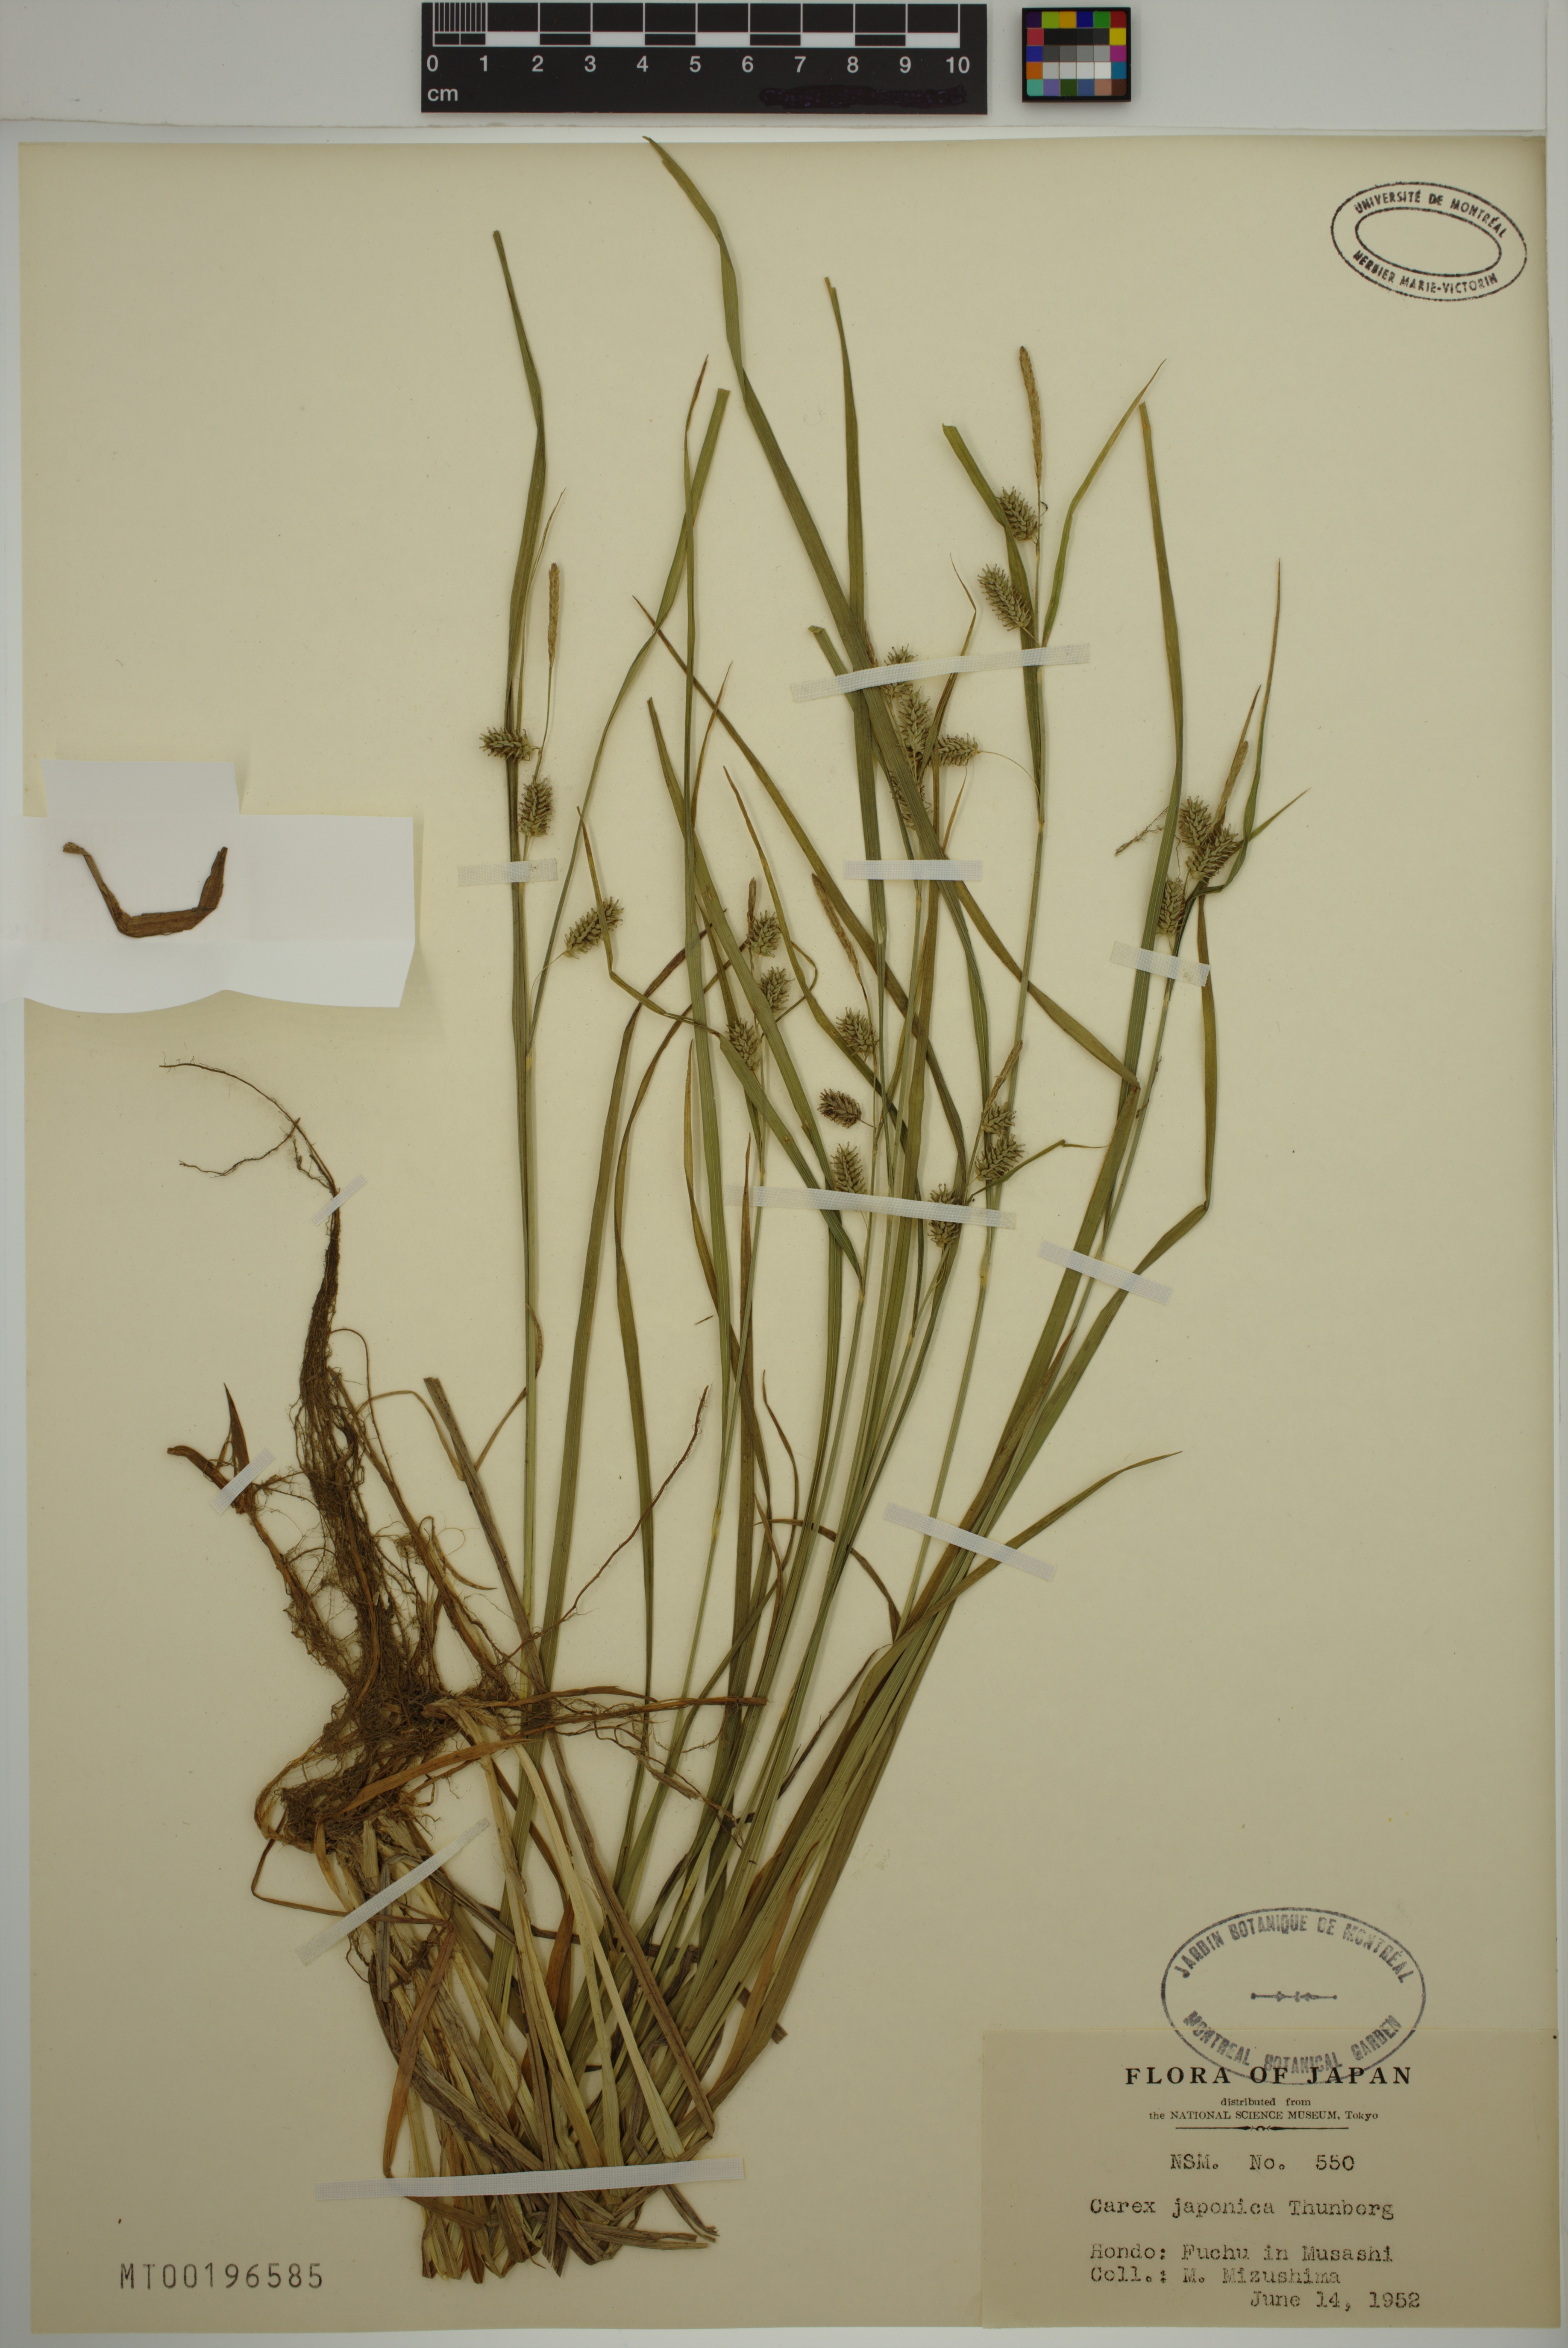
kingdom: Plantae
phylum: Tracheophyta
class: Liliopsida
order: Poales
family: Cyperaceae
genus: Carex
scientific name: Carex japonica
